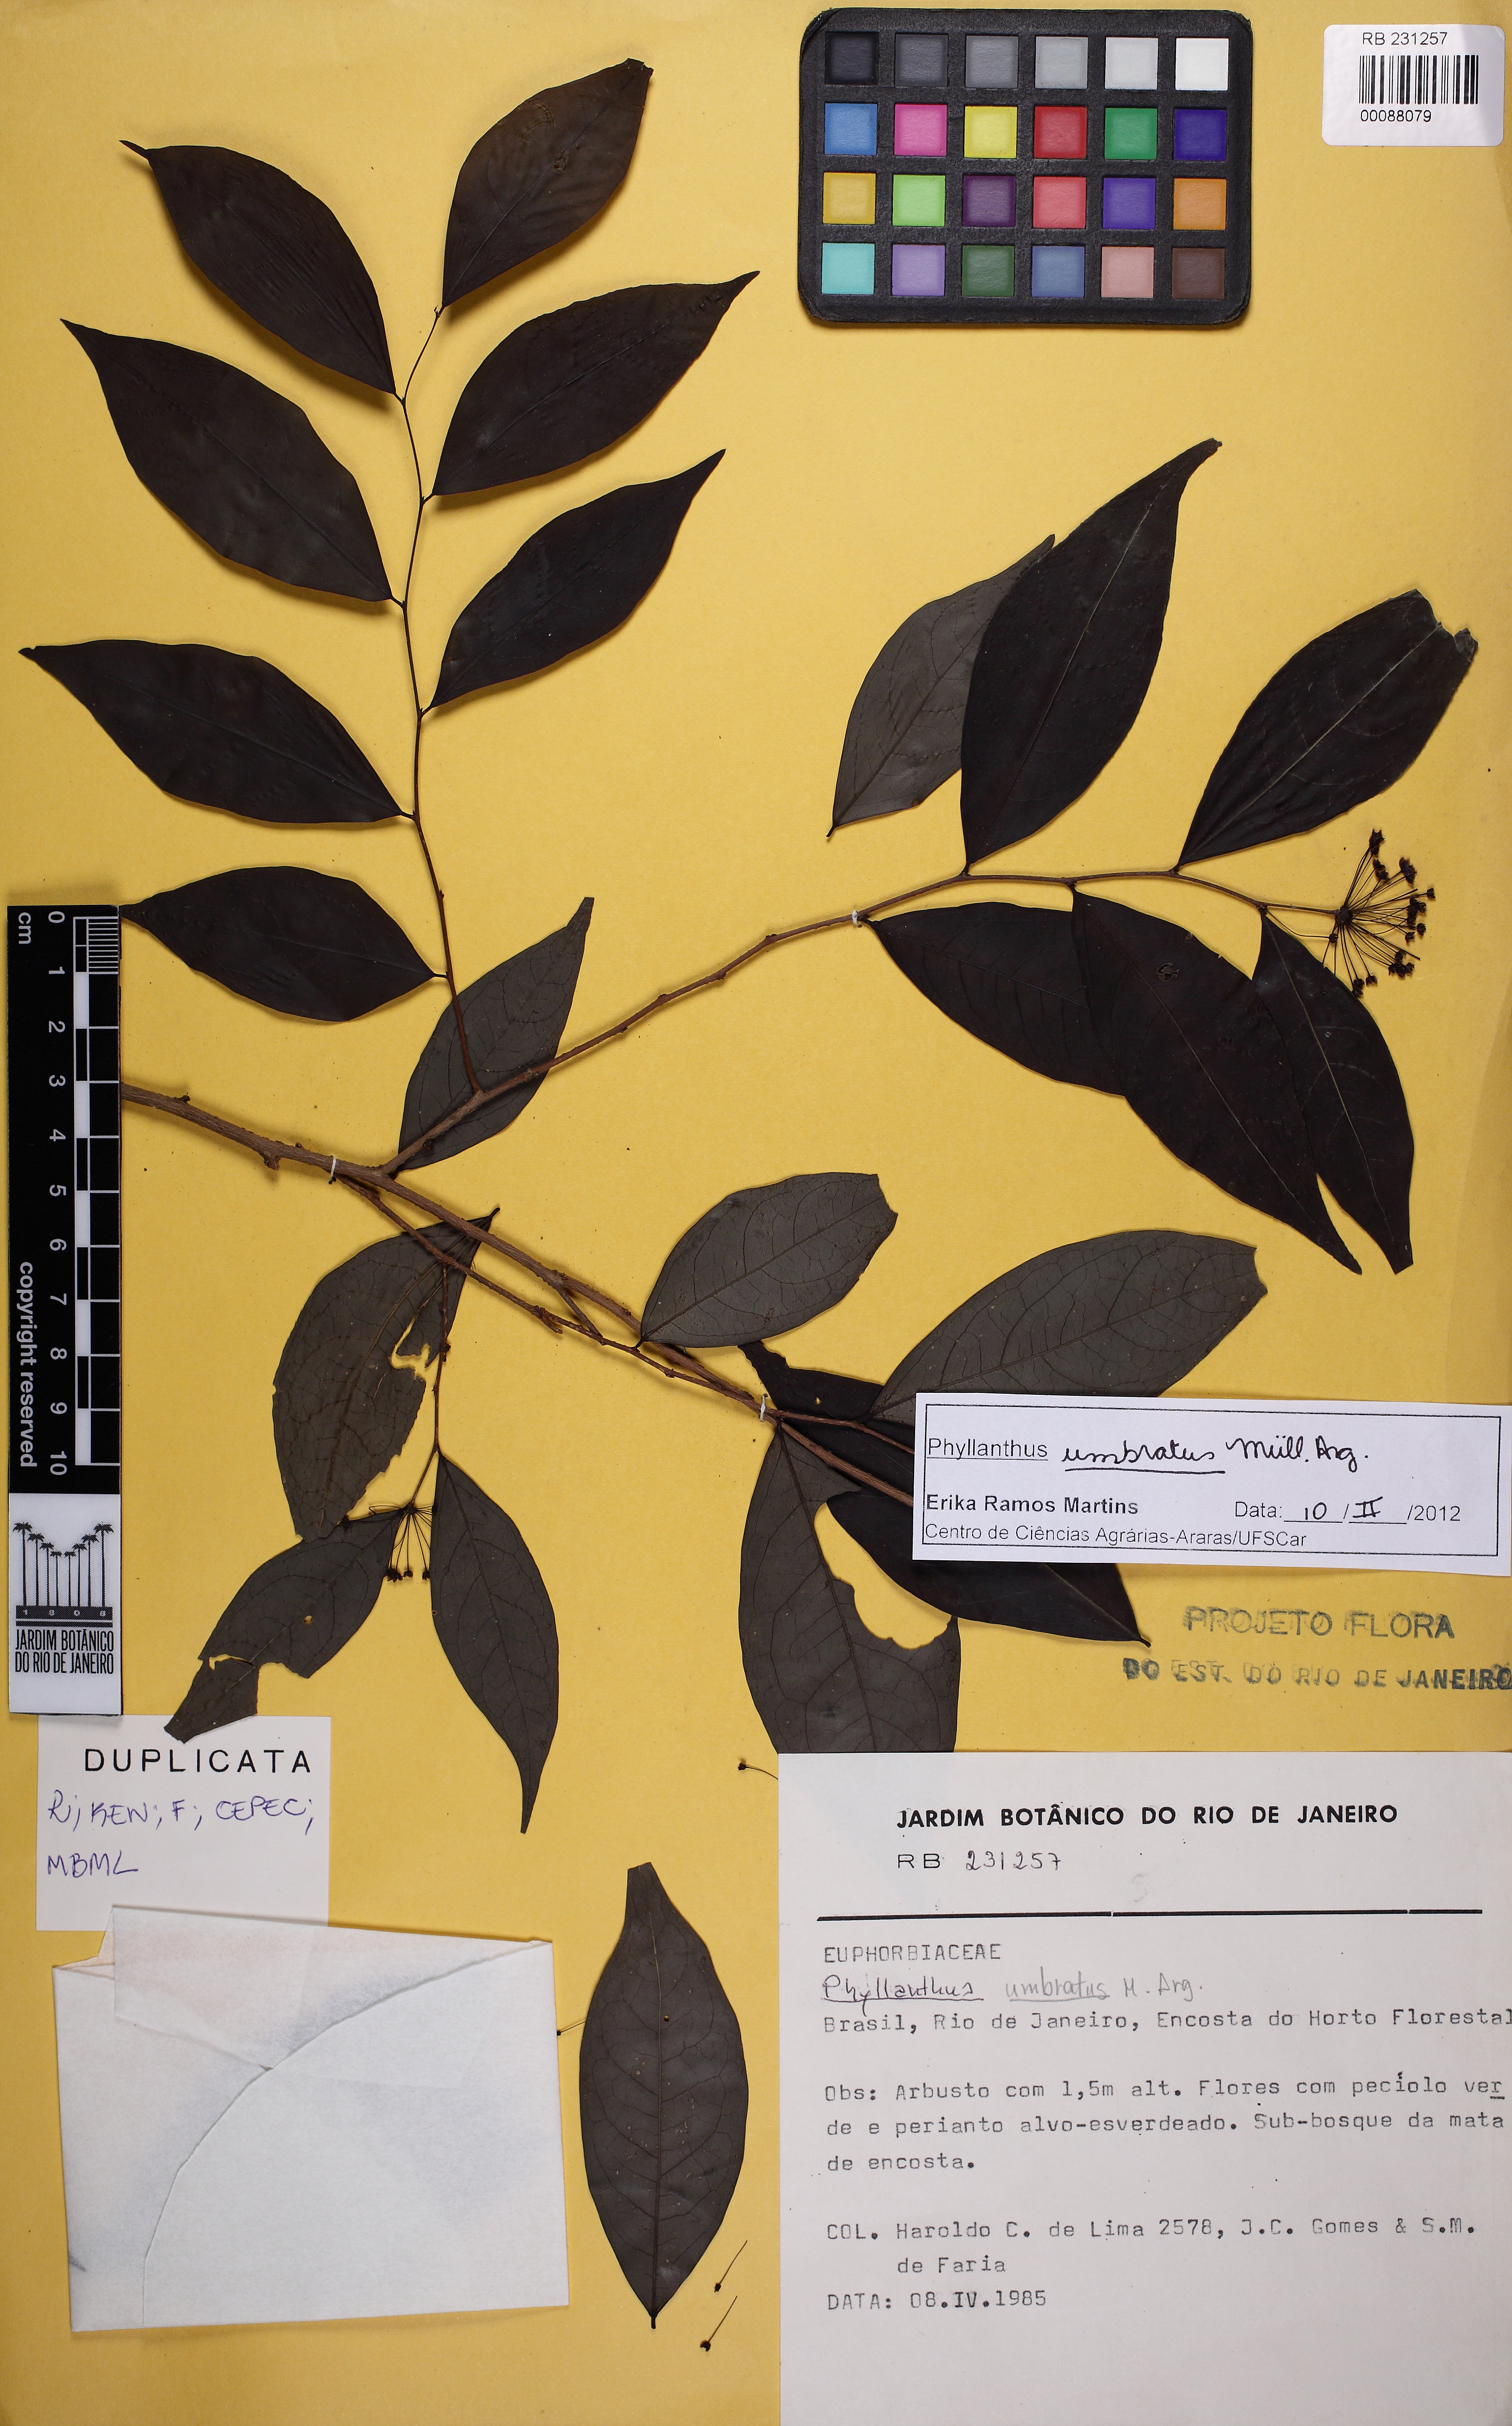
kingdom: Plantae
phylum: Tracheophyta
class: Magnoliopsida
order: Malpighiales
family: Phyllanthaceae
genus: Phyllanthus
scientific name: Phyllanthus umbratus
